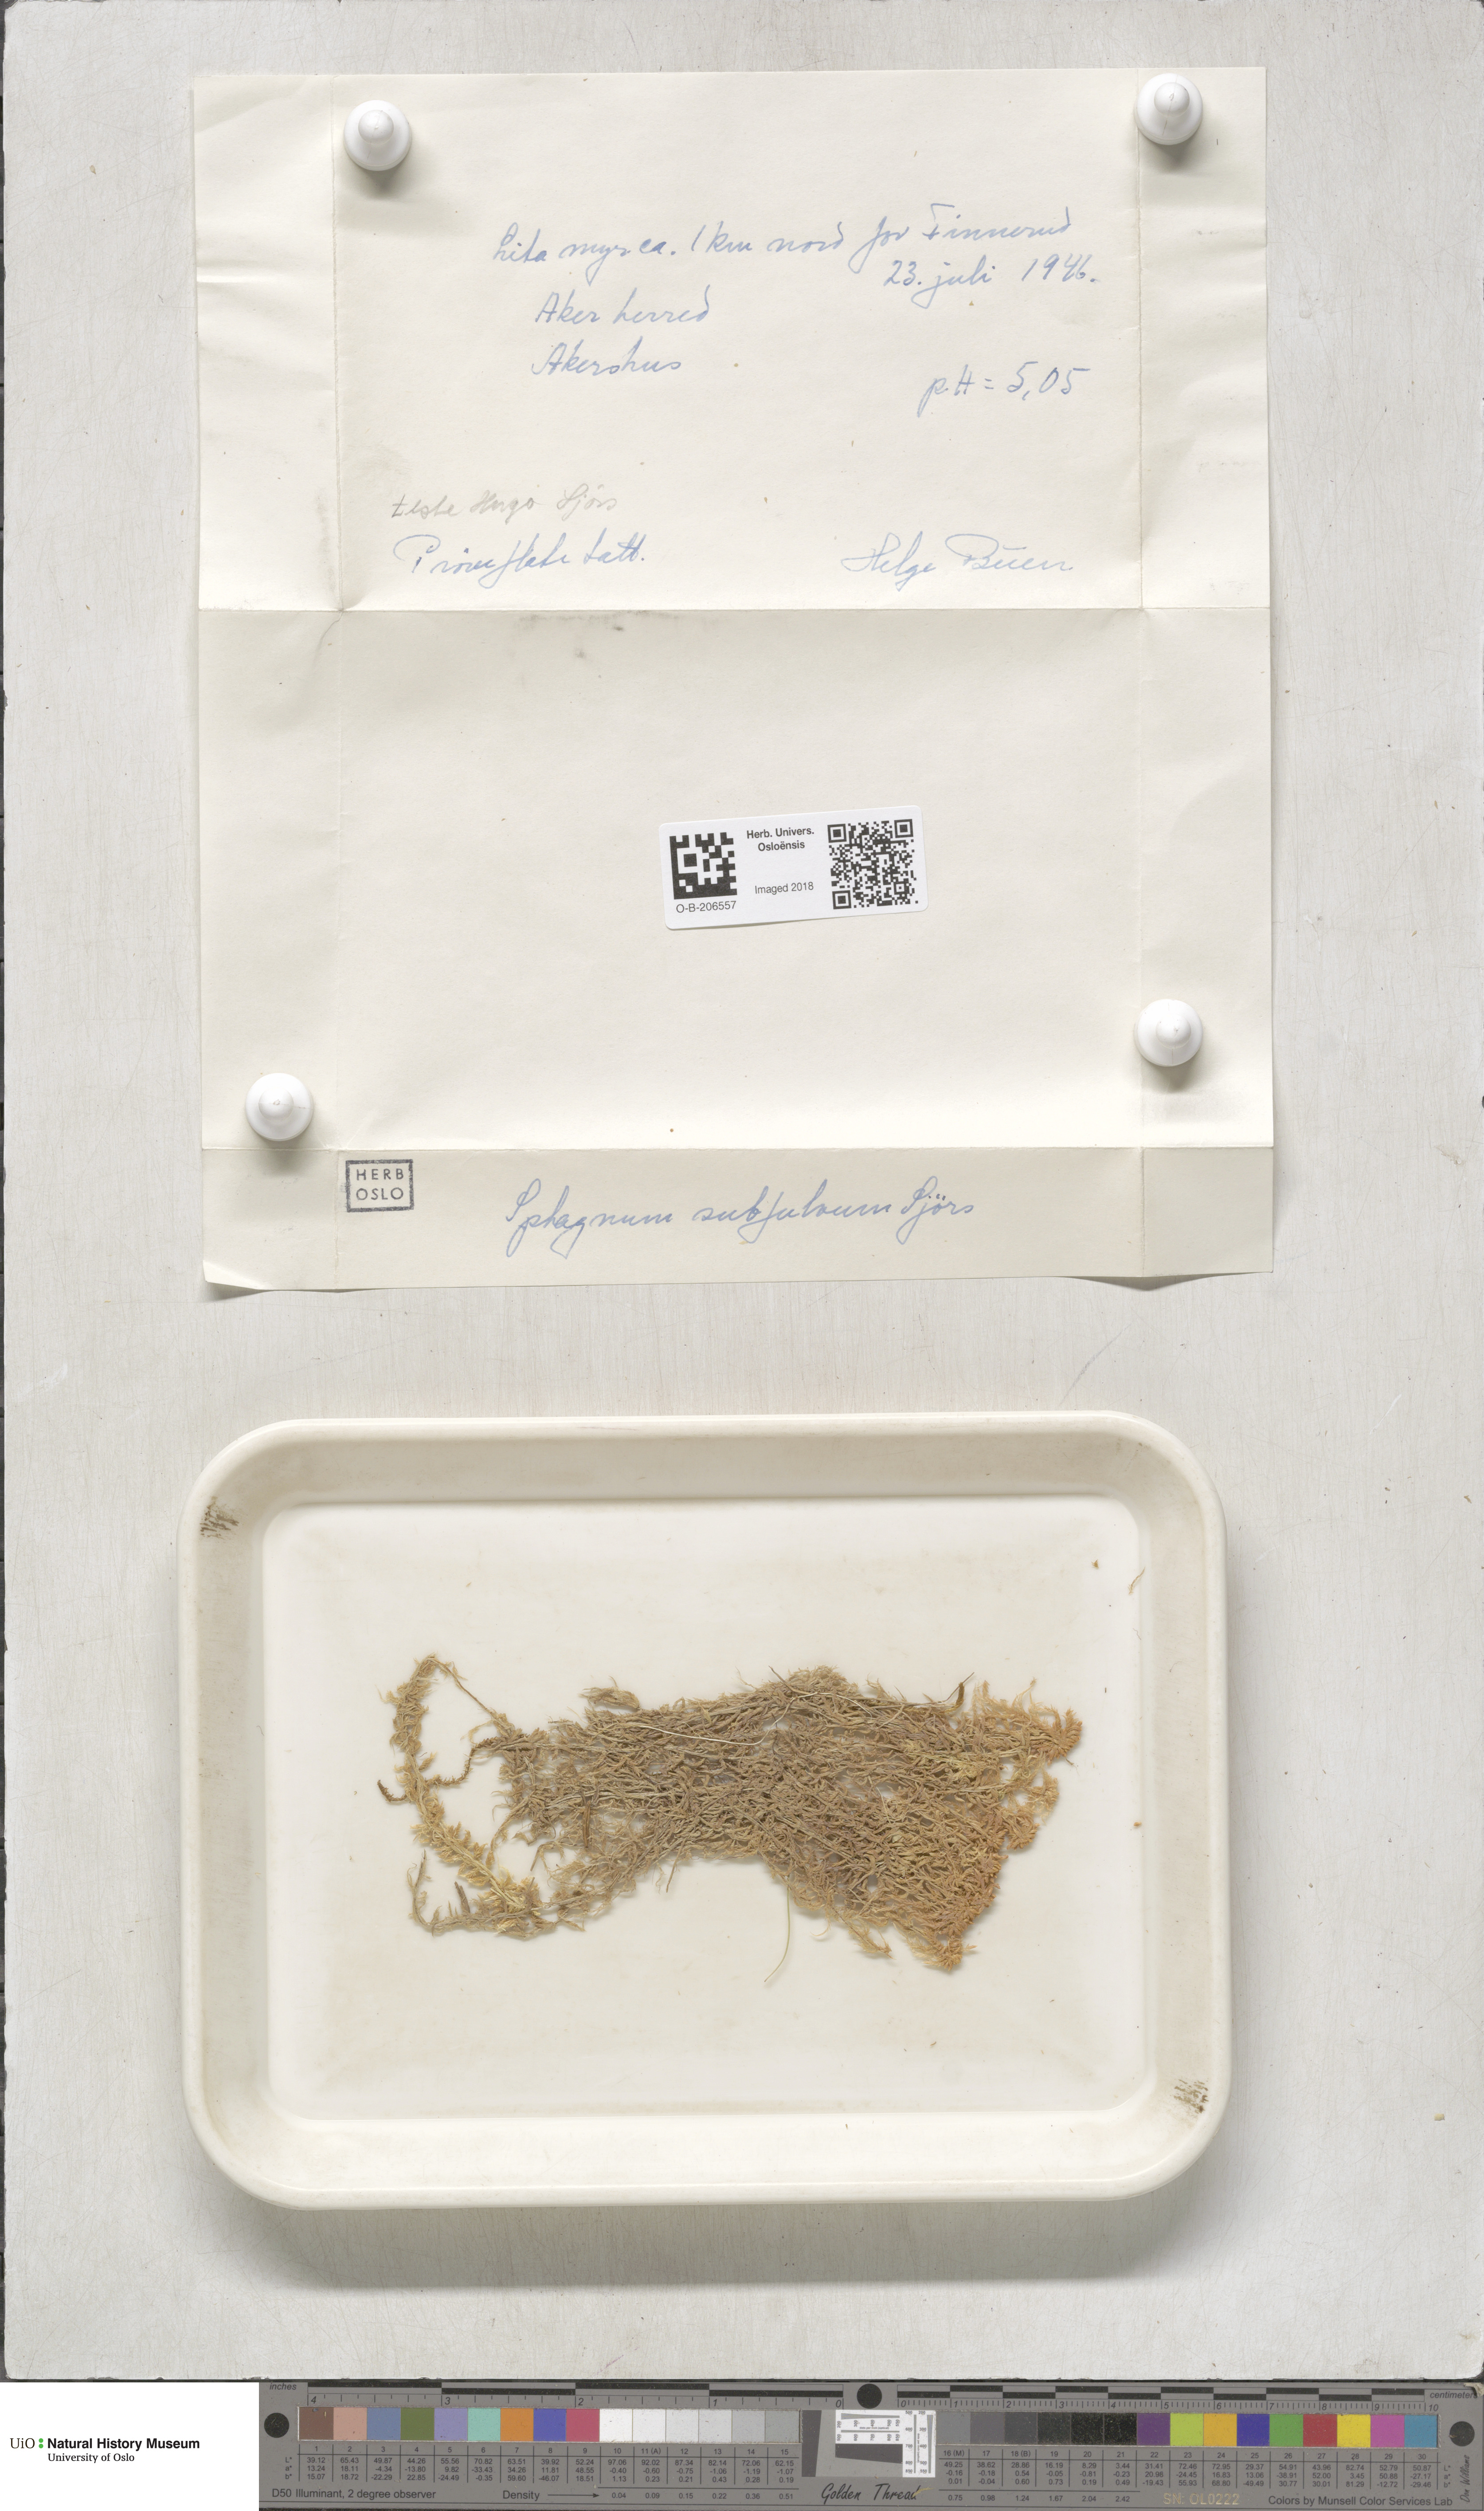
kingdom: Plantae
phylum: Bryophyta
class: Sphagnopsida
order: Sphagnales
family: Sphagnaceae
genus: Sphagnum
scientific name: Sphagnum subfulvum
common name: Fulvous peat moss
